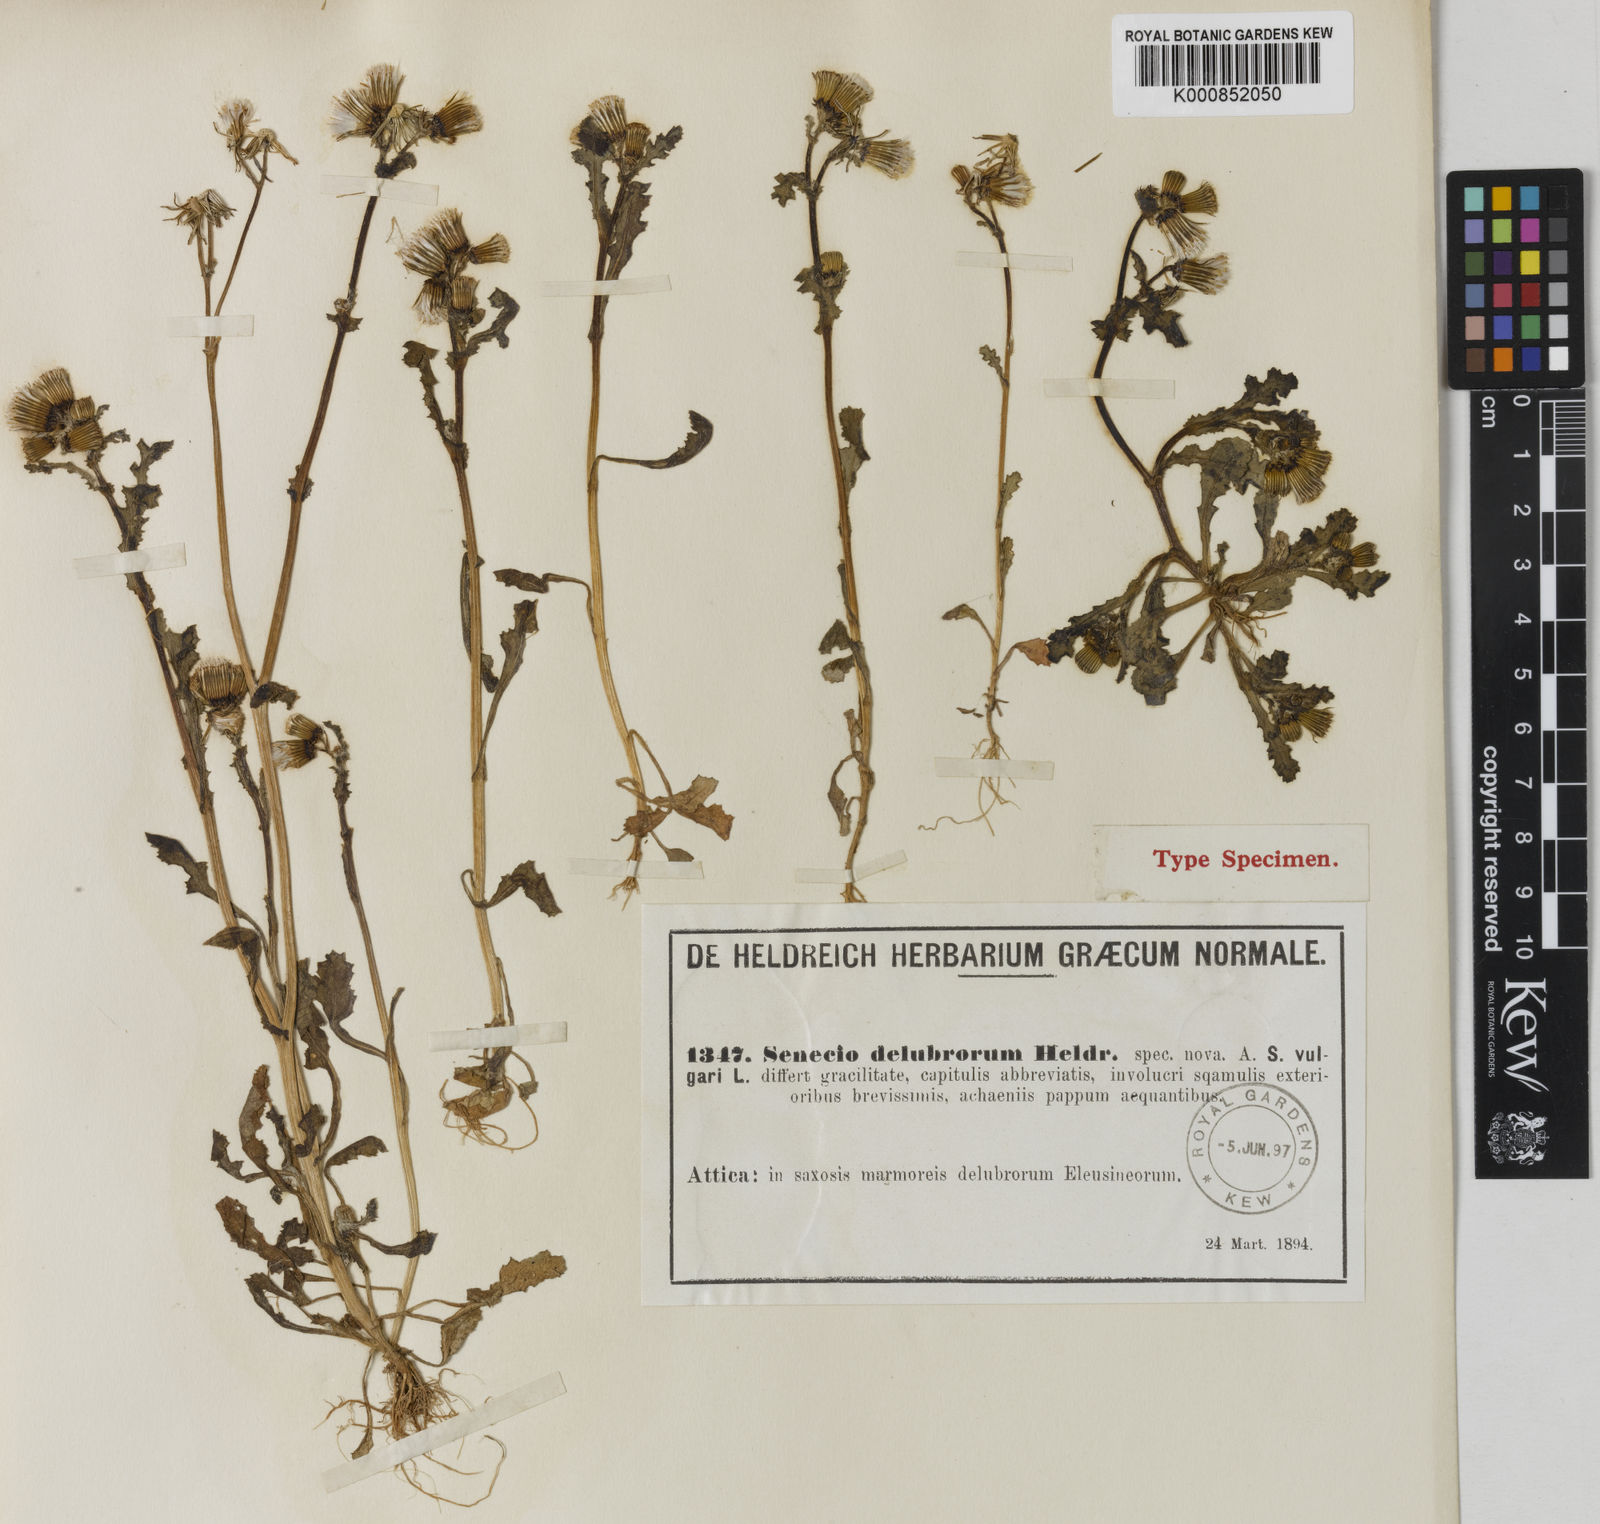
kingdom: Plantae
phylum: Tracheophyta
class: Magnoliopsida
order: Asterales
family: Asteraceae
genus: Senecio
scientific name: Senecio vulgaris
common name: Old-man-in-the-spring
